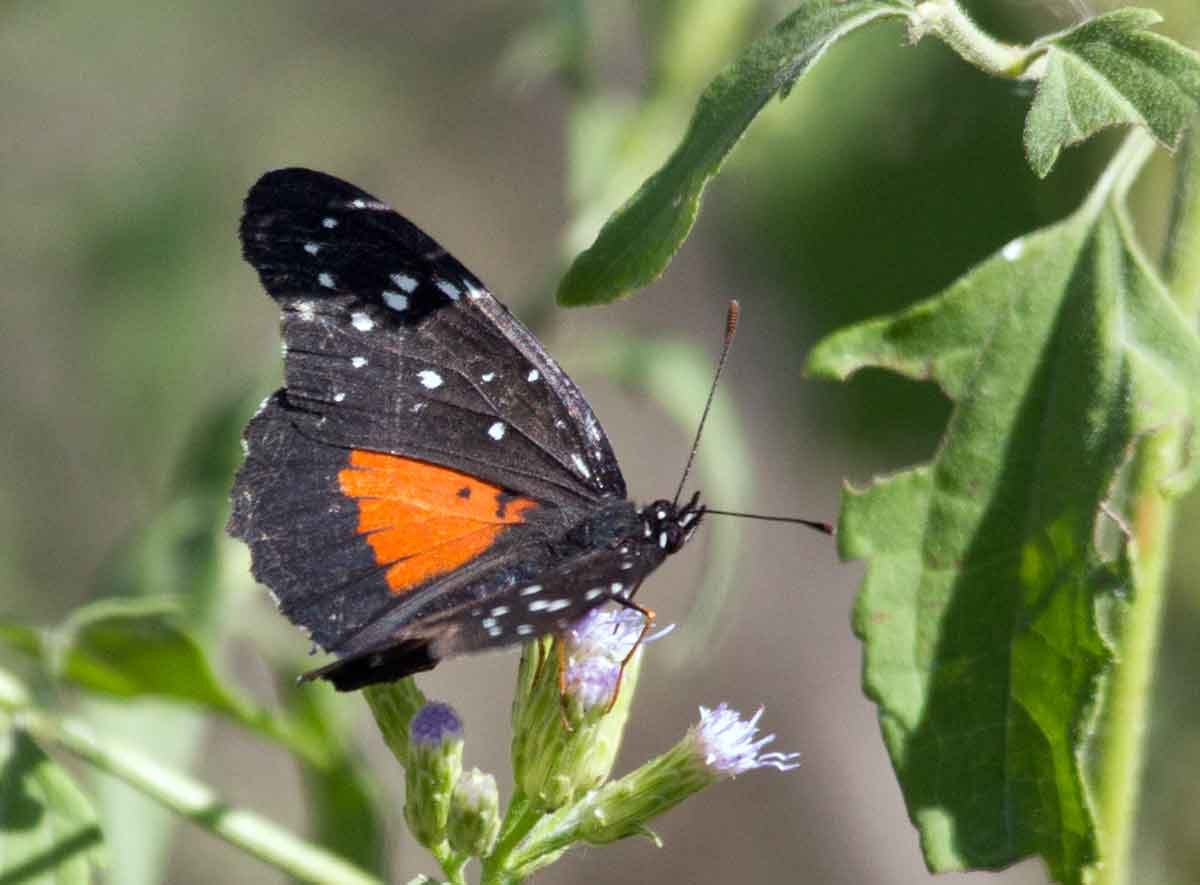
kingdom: Animalia
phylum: Arthropoda
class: Insecta
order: Lepidoptera
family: Nymphalidae
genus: Chlosyne
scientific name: Chlosyne janais
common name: Crimson Patch
